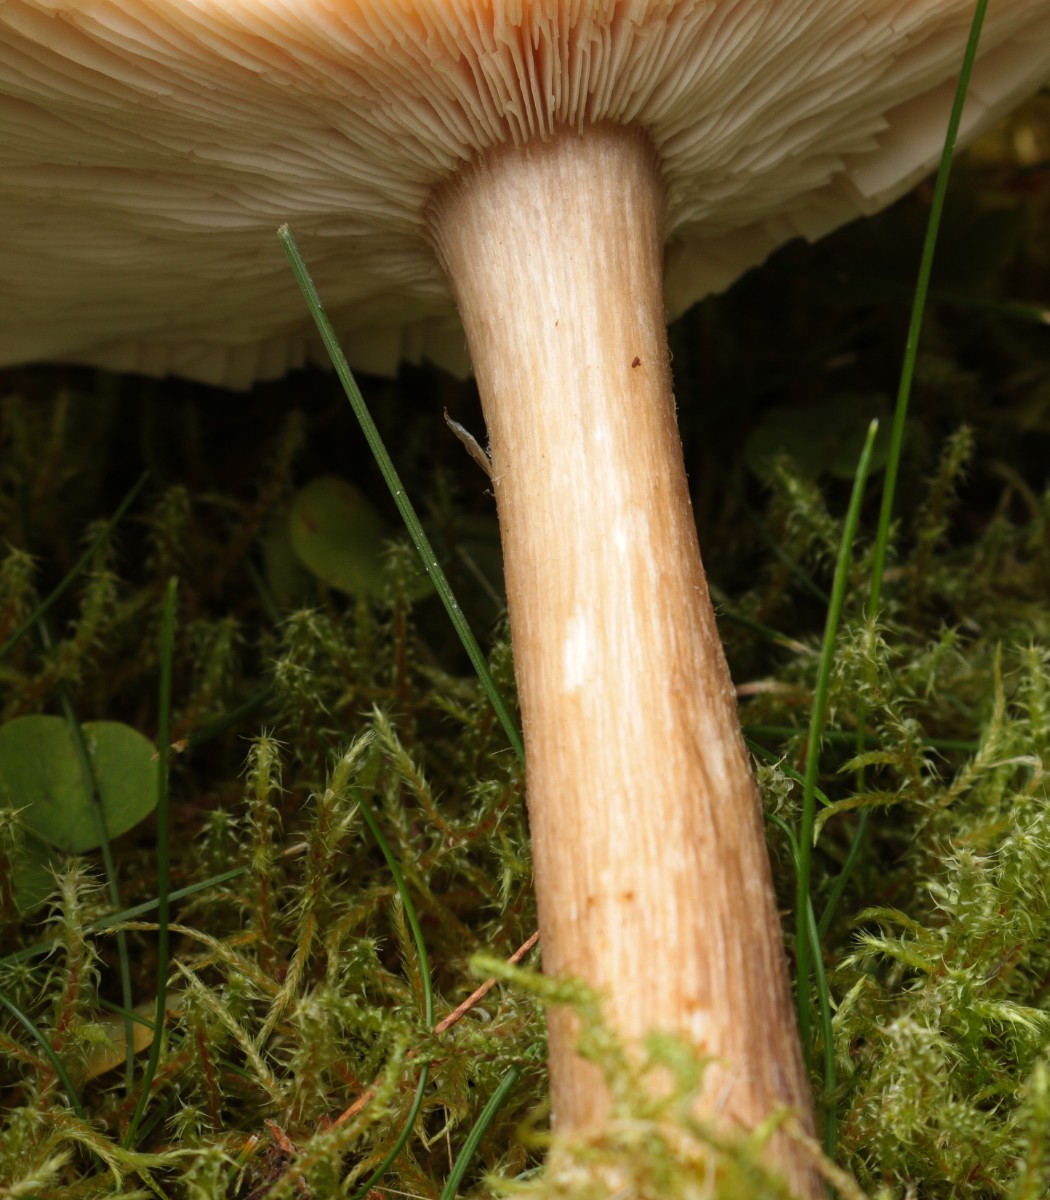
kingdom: Fungi
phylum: Basidiomycota
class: Agaricomycetes
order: Agaricales
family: Tricholomataceae
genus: Melanoleuca
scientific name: Melanoleuca
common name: munkehat
